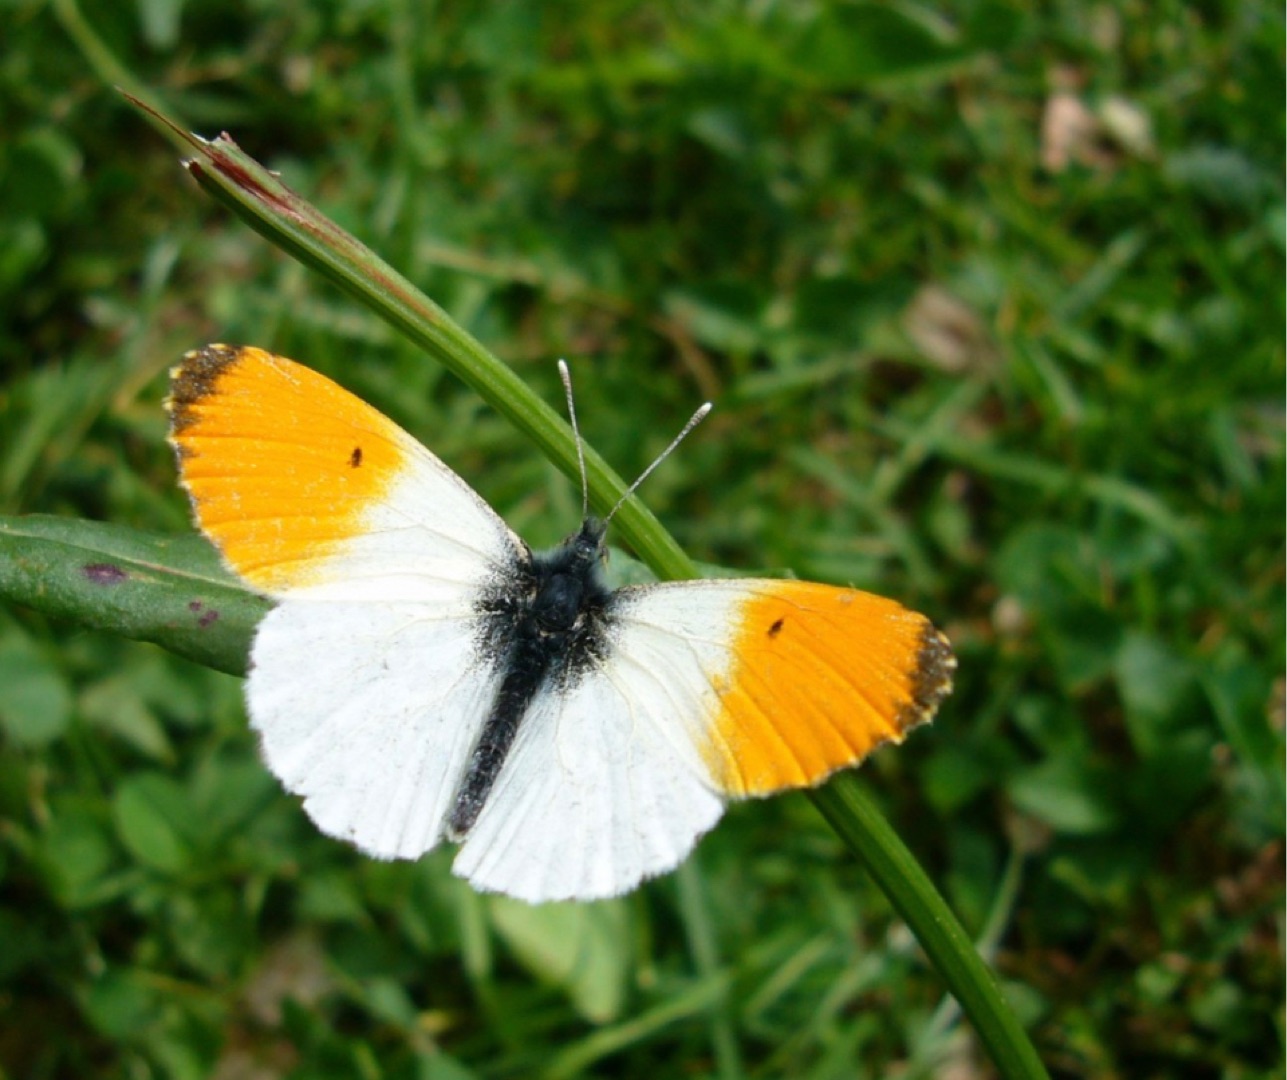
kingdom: Animalia
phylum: Arthropoda
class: Insecta
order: Lepidoptera
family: Pieridae
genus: Anthocharis
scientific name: Anthocharis cardamines
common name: Aurora
